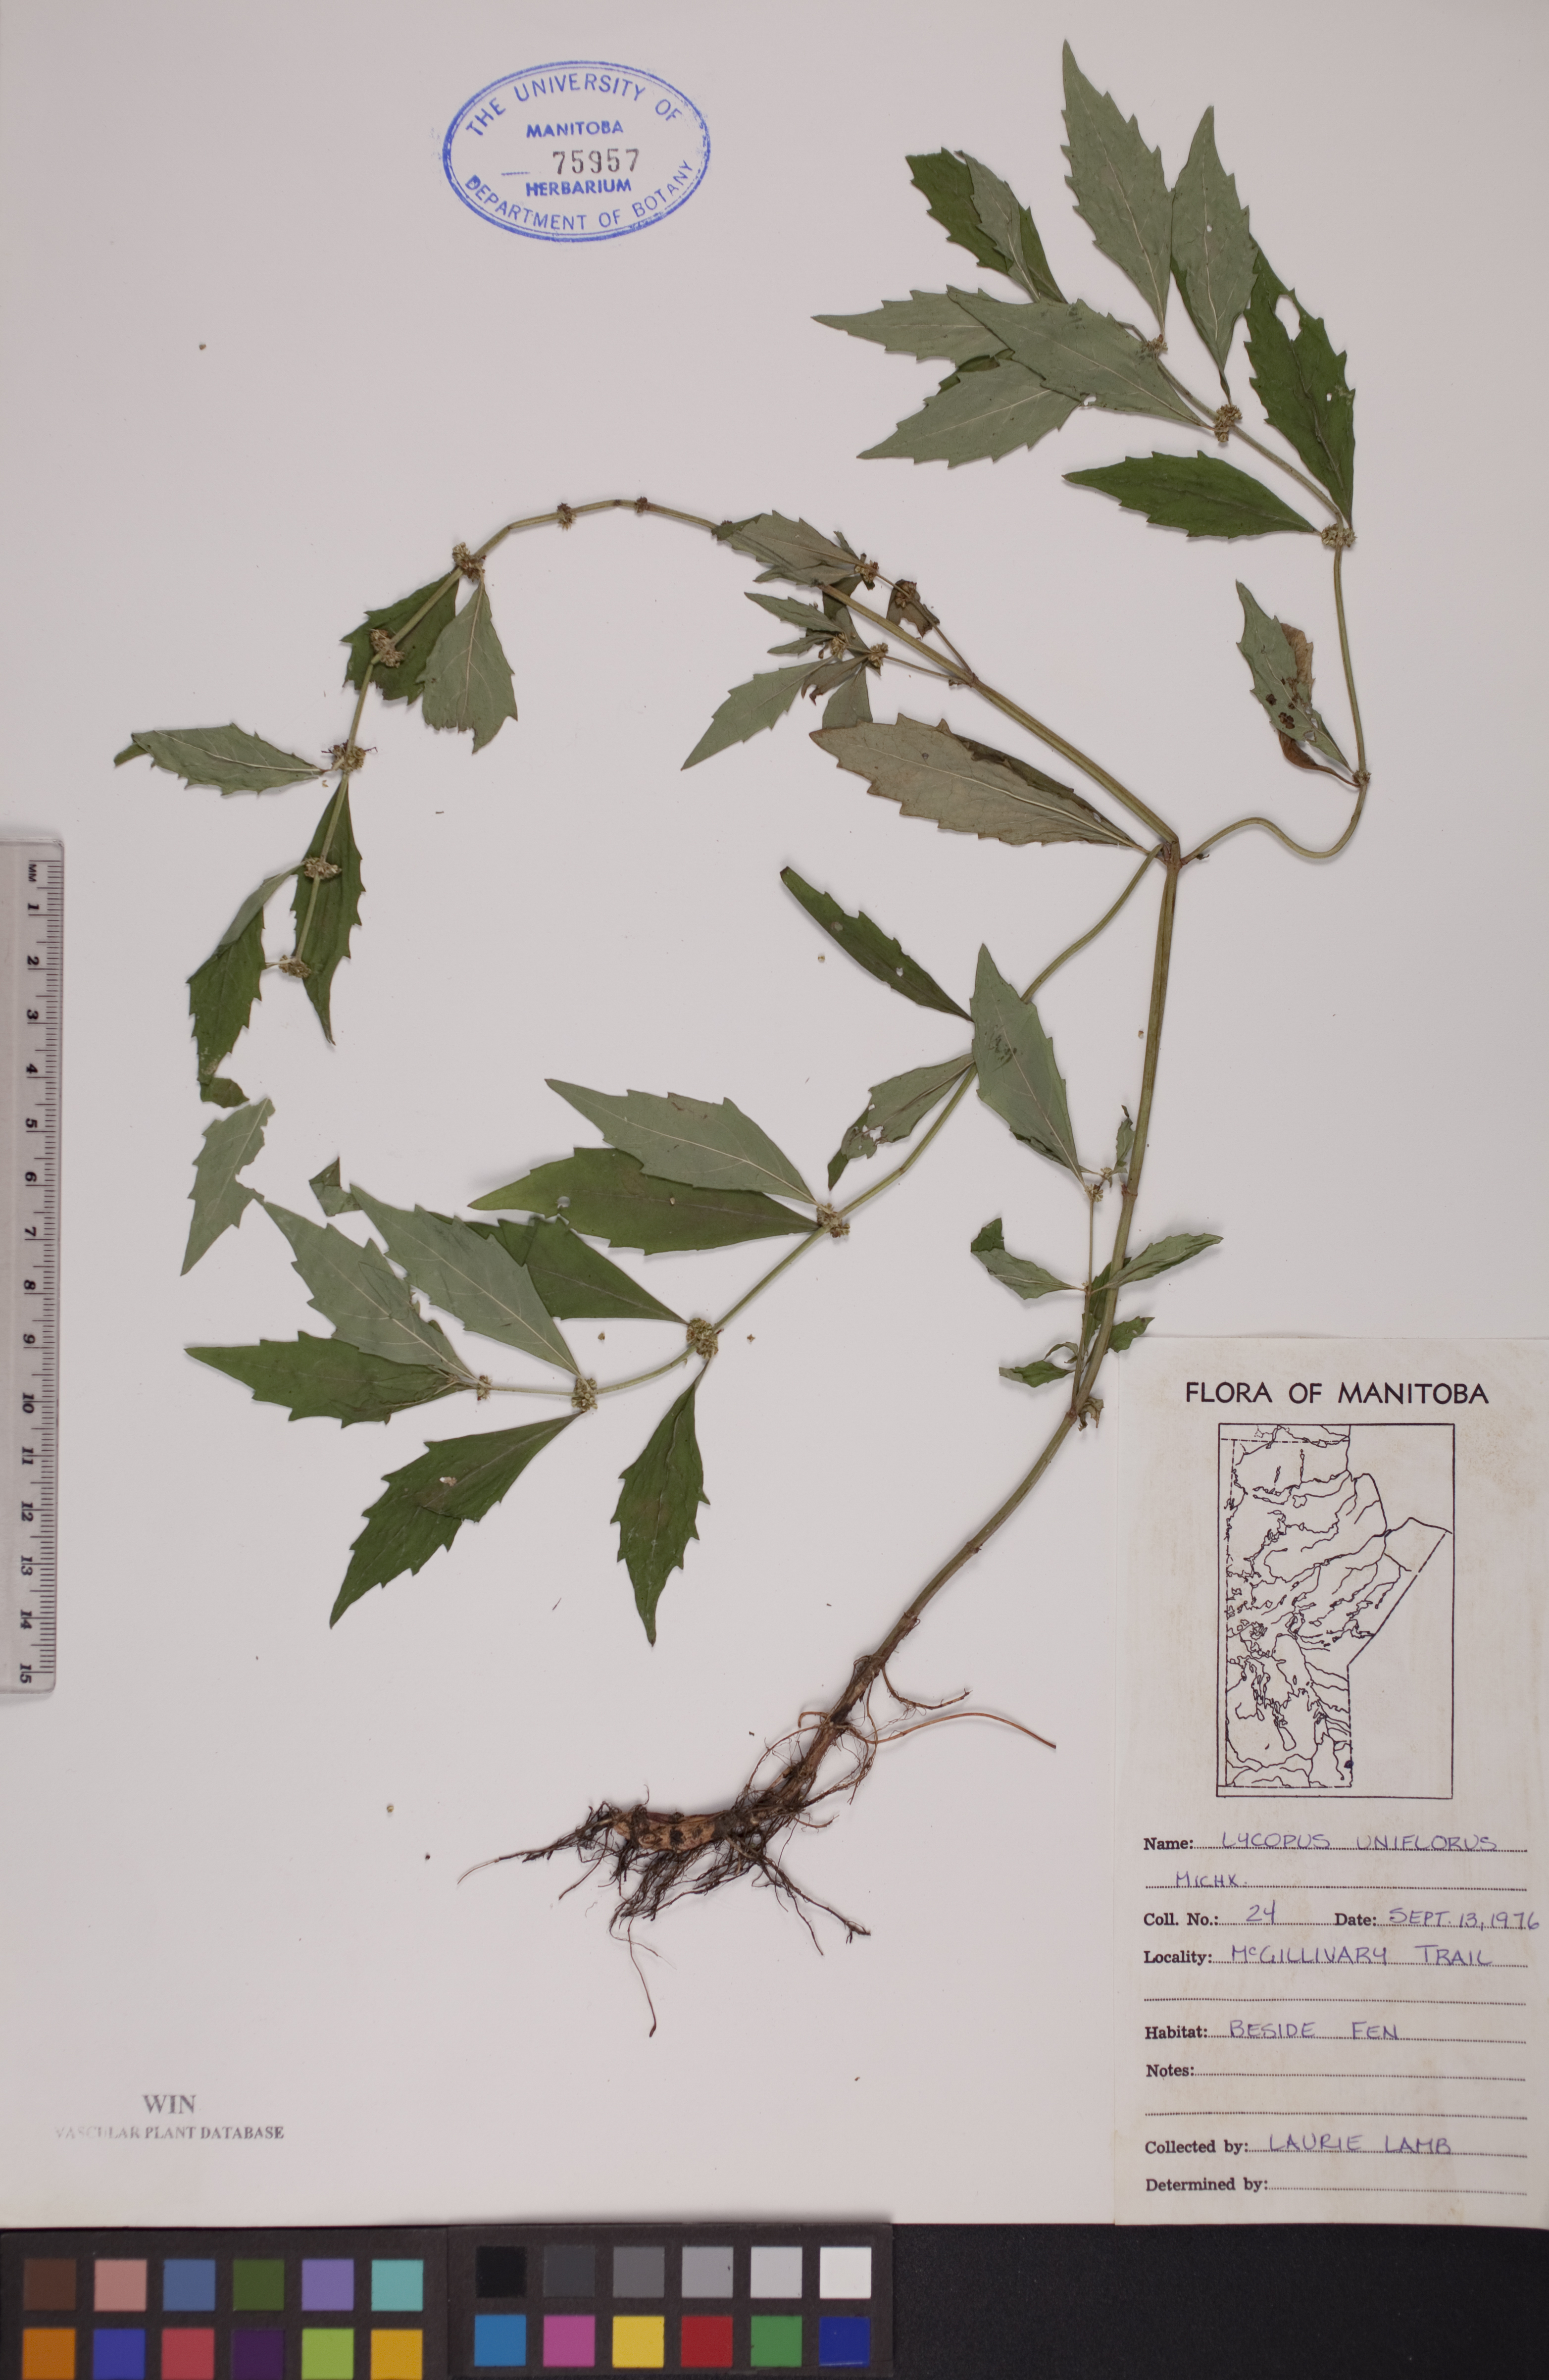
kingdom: Plantae
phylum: Tracheophyta
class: Magnoliopsida
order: Lamiales
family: Lamiaceae
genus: Lycopus
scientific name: Lycopus uniflorus
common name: Northern bugleweed
